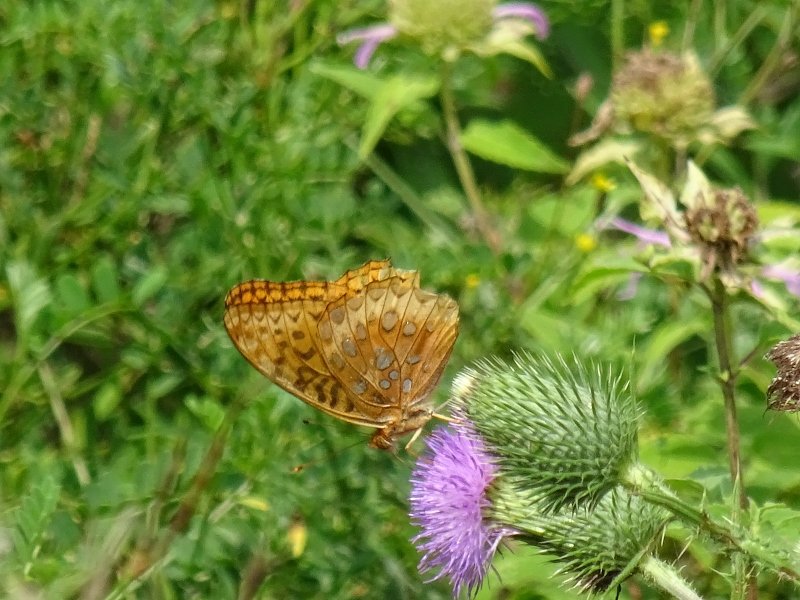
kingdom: Animalia
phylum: Arthropoda
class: Insecta
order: Lepidoptera
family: Nymphalidae
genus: Speyeria
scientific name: Speyeria cybele
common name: Great Spangled Fritillary
